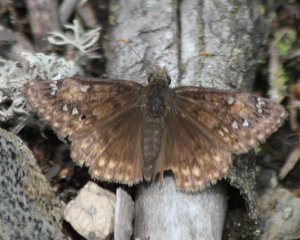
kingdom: Animalia
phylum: Arthropoda
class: Insecta
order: Lepidoptera
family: Hesperiidae
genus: Gesta
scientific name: Gesta
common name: Juvenal's Duskywing
